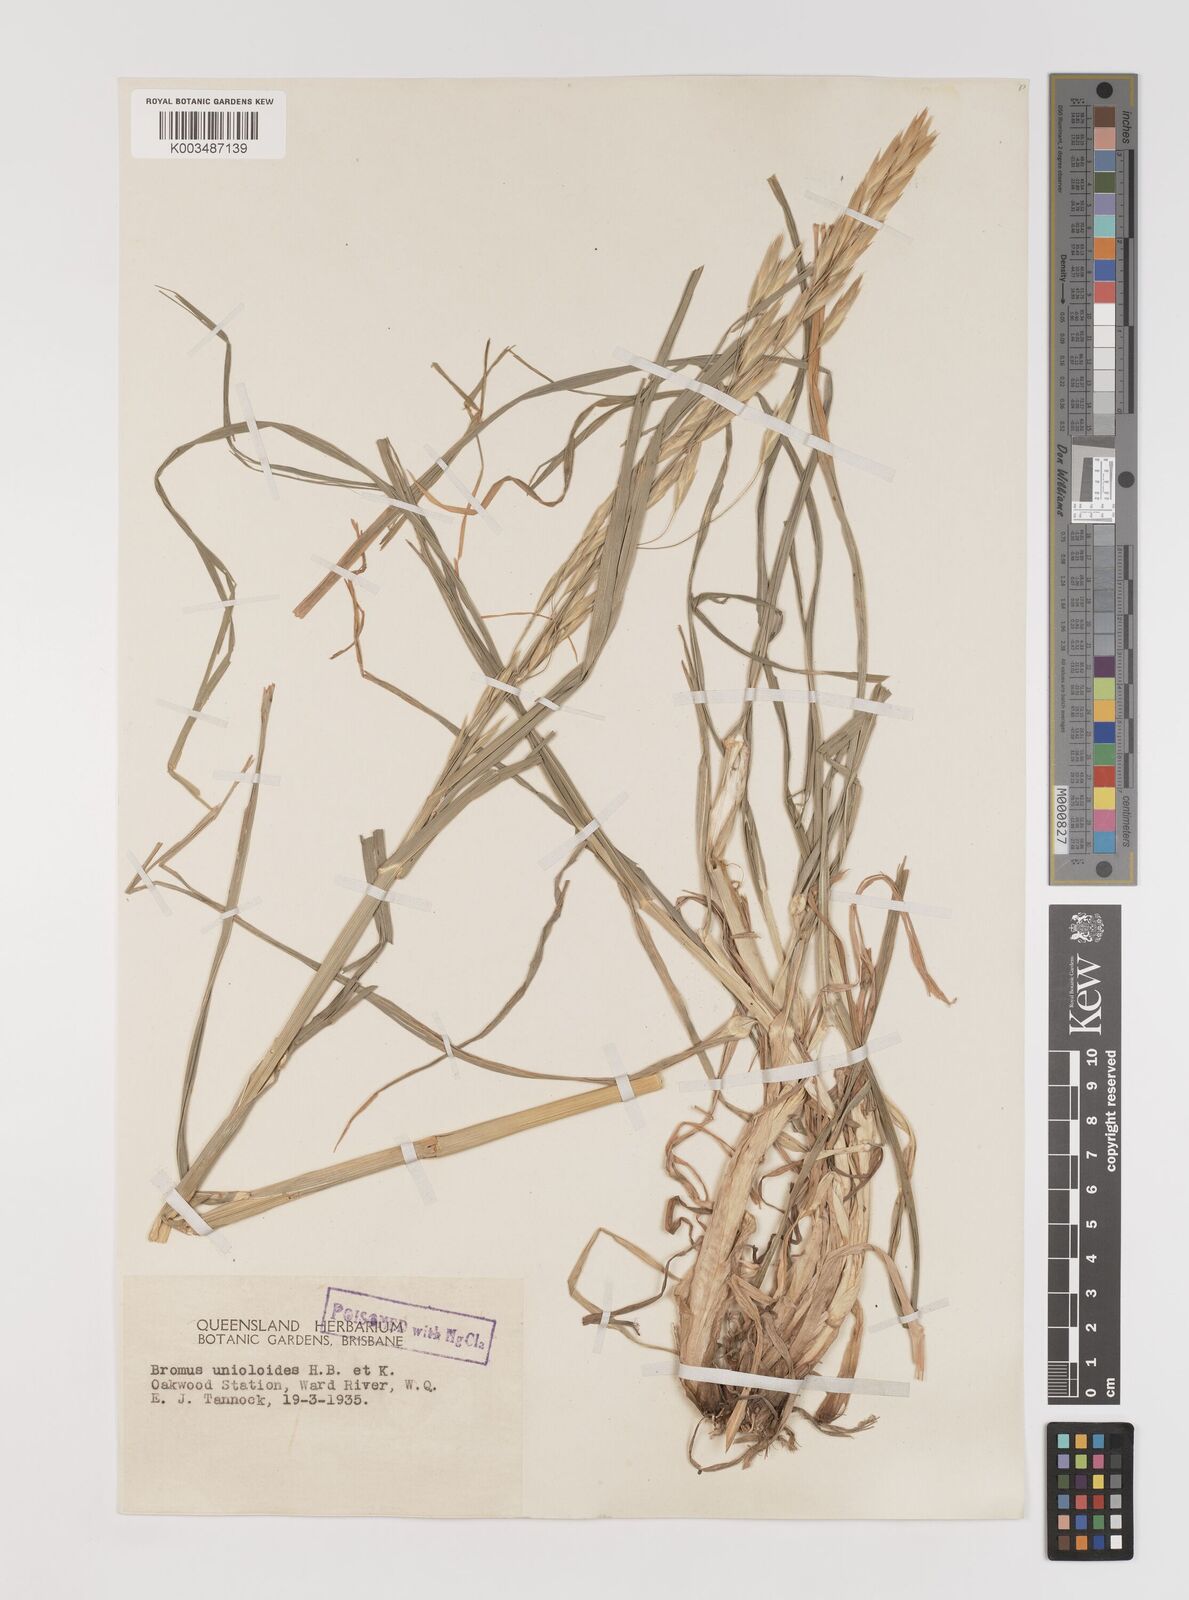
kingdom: Plantae
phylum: Tracheophyta
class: Liliopsida
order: Poales
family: Poaceae
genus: Bromus
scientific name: Bromus catharticus
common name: Rescuegrass
